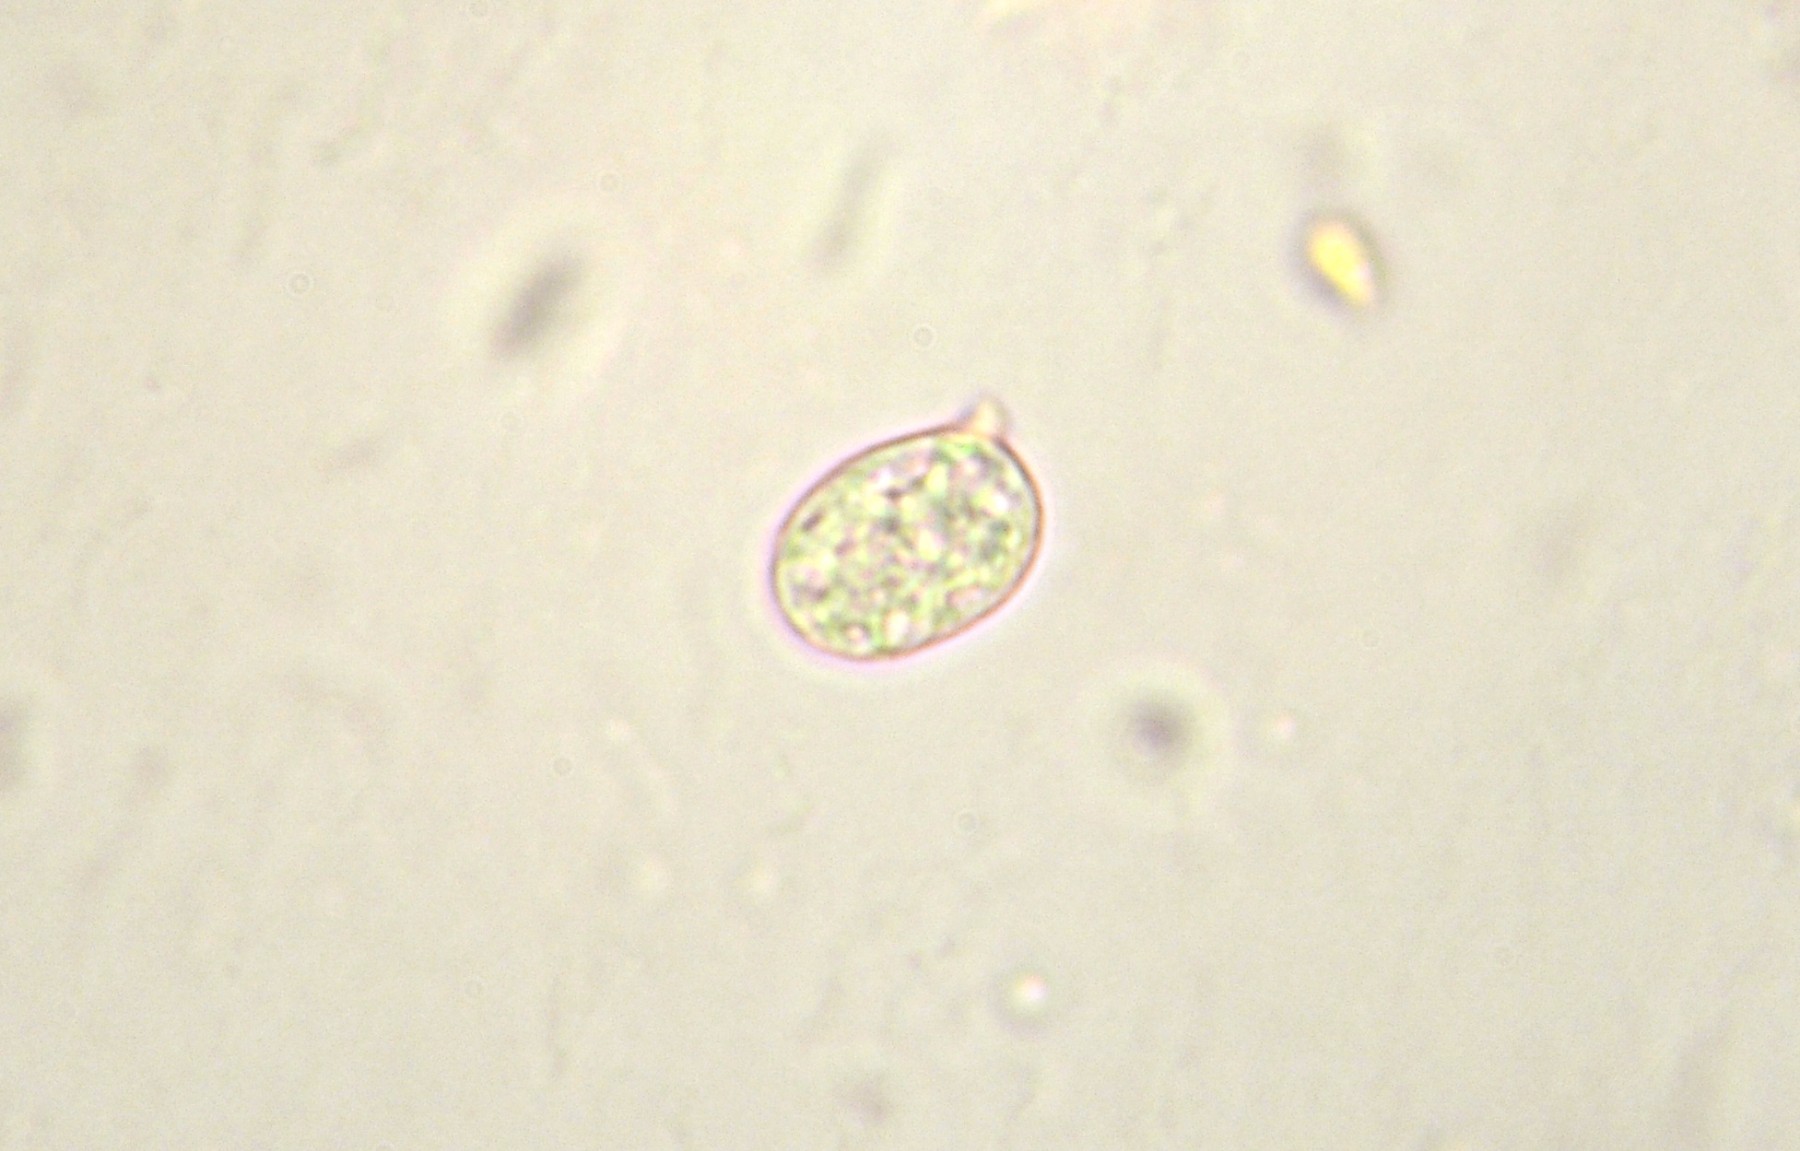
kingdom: Fungi
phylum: Basidiomycota
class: Agaricomycetes
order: Agaricales
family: Radulomycetaceae
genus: Radulomyces
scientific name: Radulomyces confluens
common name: glat naftalinskind
